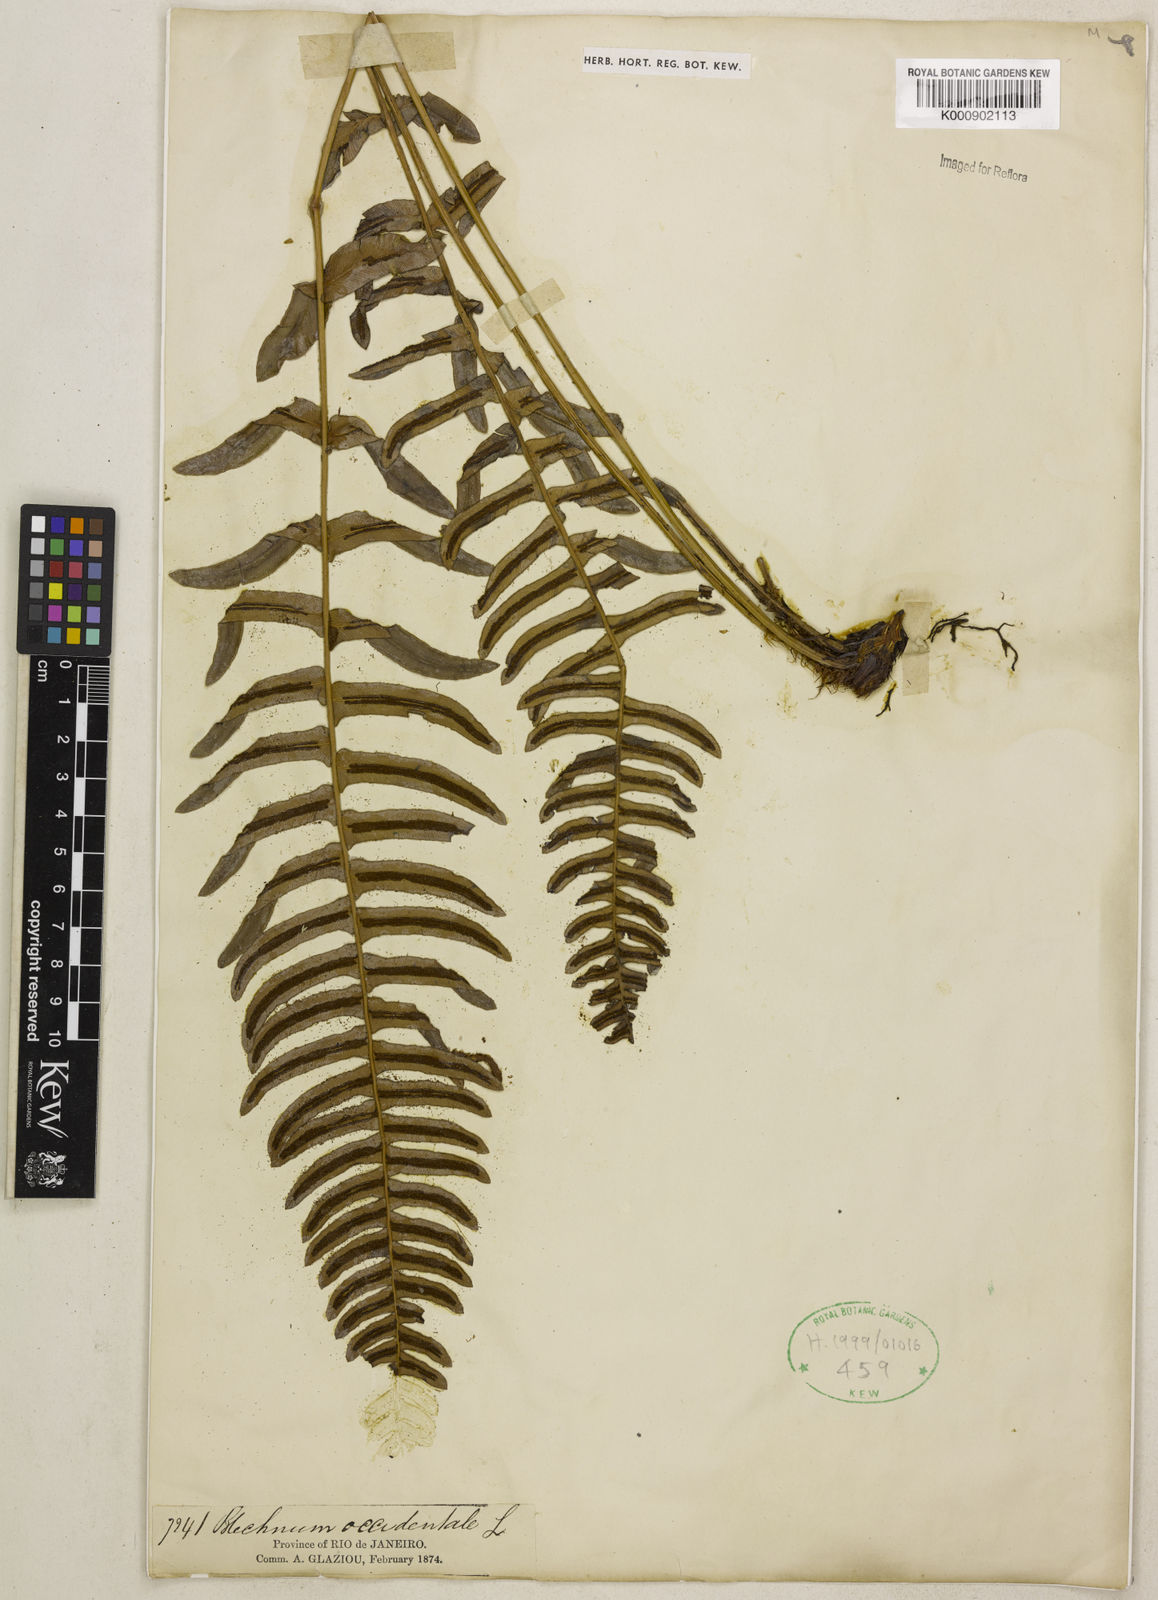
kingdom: Plantae
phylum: Tracheophyta
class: Polypodiopsida
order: Polypodiales
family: Blechnaceae
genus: Blechnum
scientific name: Blechnum occidentale
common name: Hammock fern
